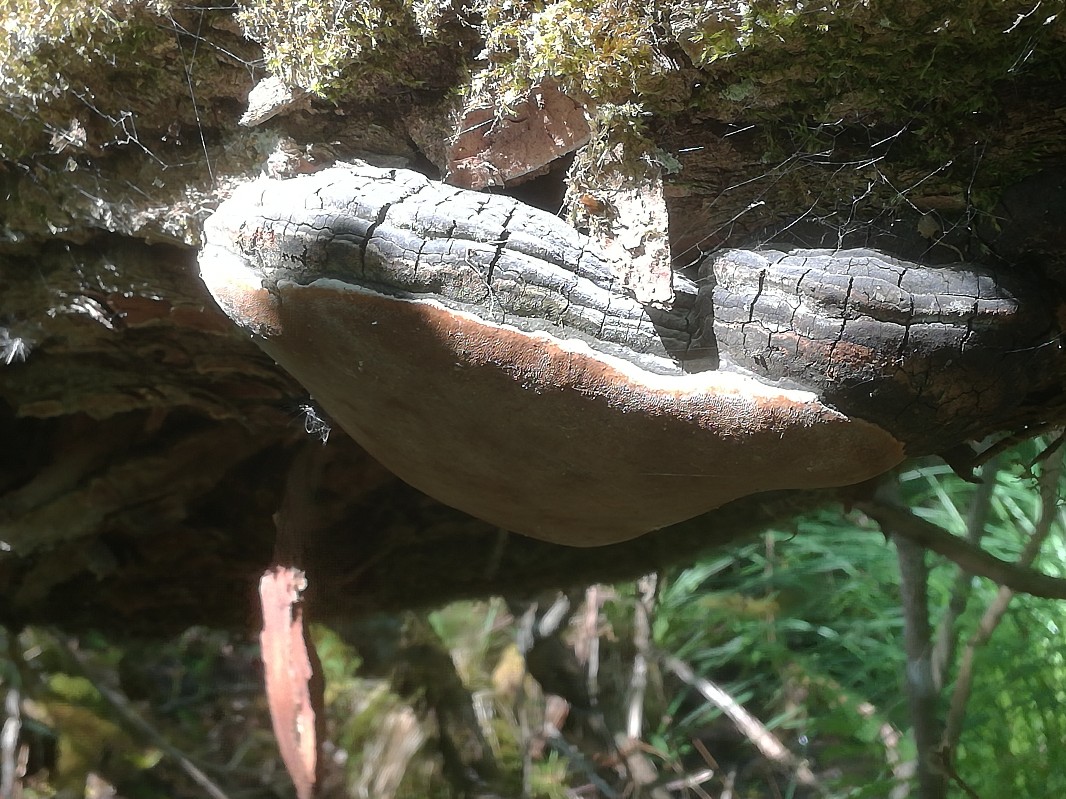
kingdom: Fungi
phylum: Basidiomycota
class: Agaricomycetes
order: Hymenochaetales
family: Hymenochaetaceae
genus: Phellinus
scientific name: Phellinus igniarius
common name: almindelig ildporesvamp
